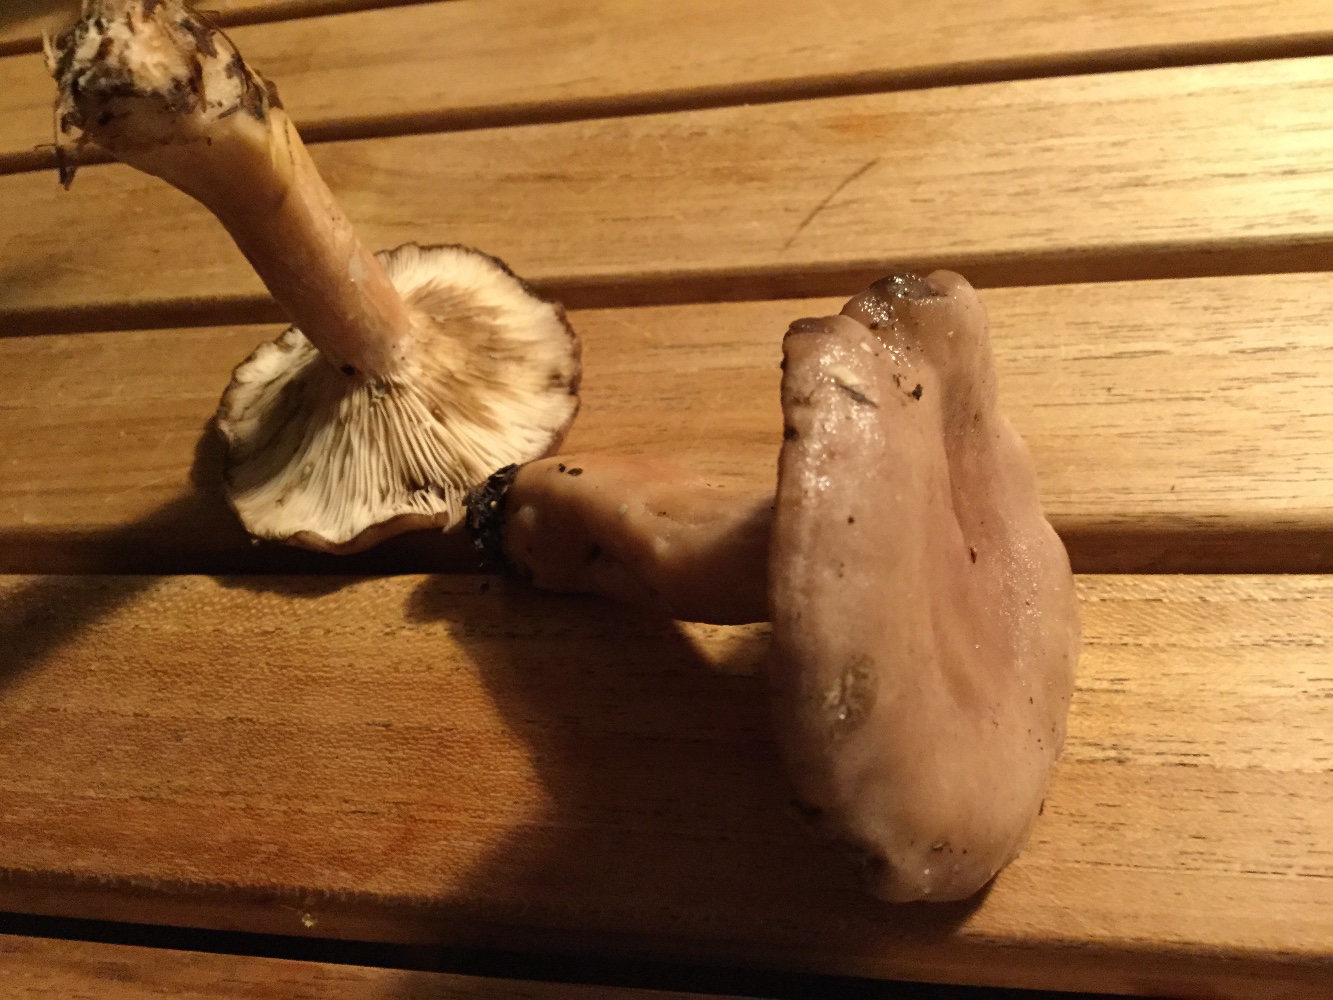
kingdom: Fungi
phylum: Basidiomycota
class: Agaricomycetes
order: Russulales
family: Russulaceae
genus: Lactarius
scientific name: Lactarius vietus
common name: violetgrå mælkehat
